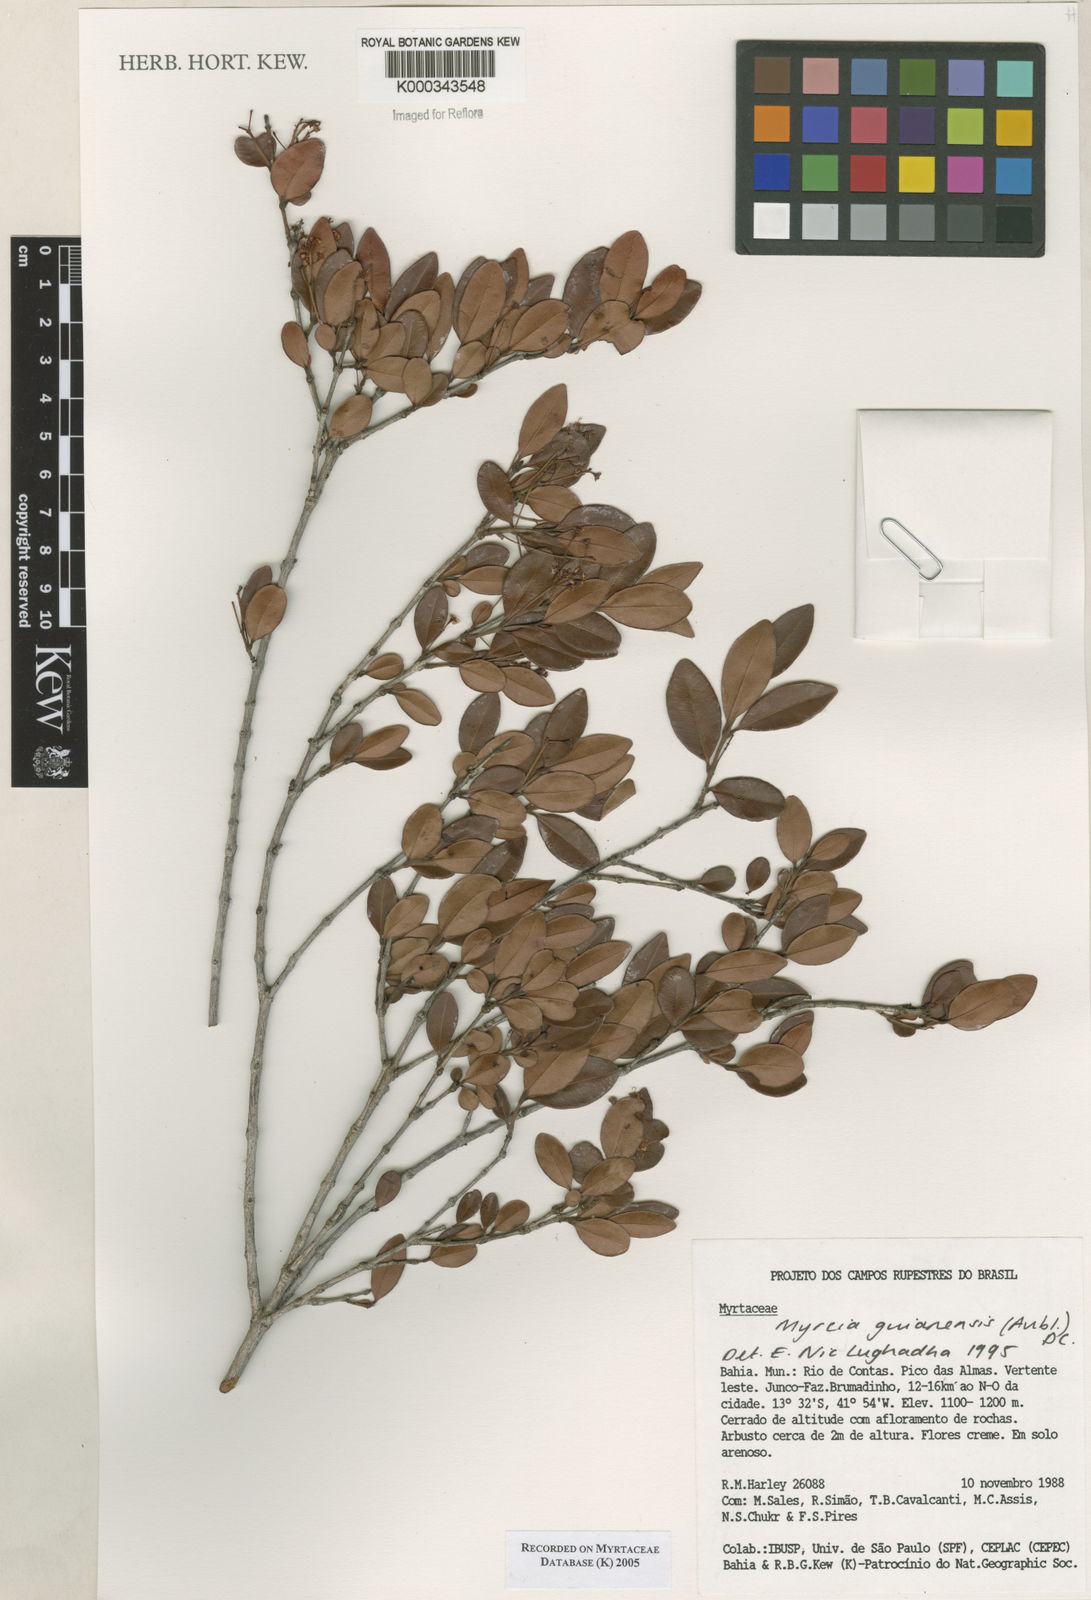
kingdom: Plantae
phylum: Tracheophyta
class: Magnoliopsida
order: Myrtales
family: Myrtaceae
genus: Myrcia
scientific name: Myrcia guianensis
